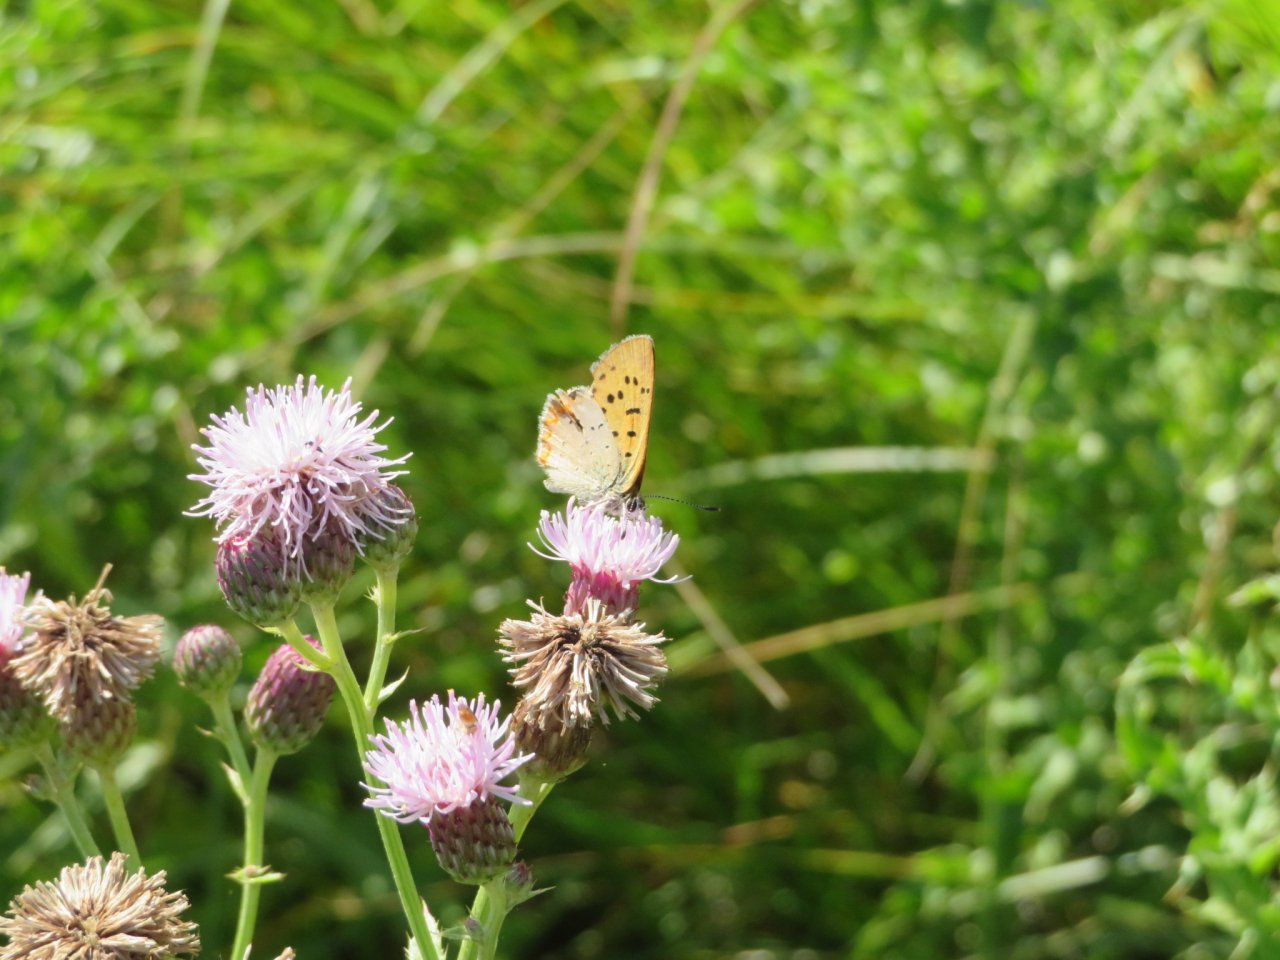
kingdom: Animalia
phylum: Arthropoda
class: Insecta
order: Lepidoptera
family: Sesiidae
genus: Sesia
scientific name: Sesia Lycaena helloides
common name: Purplish Copper
